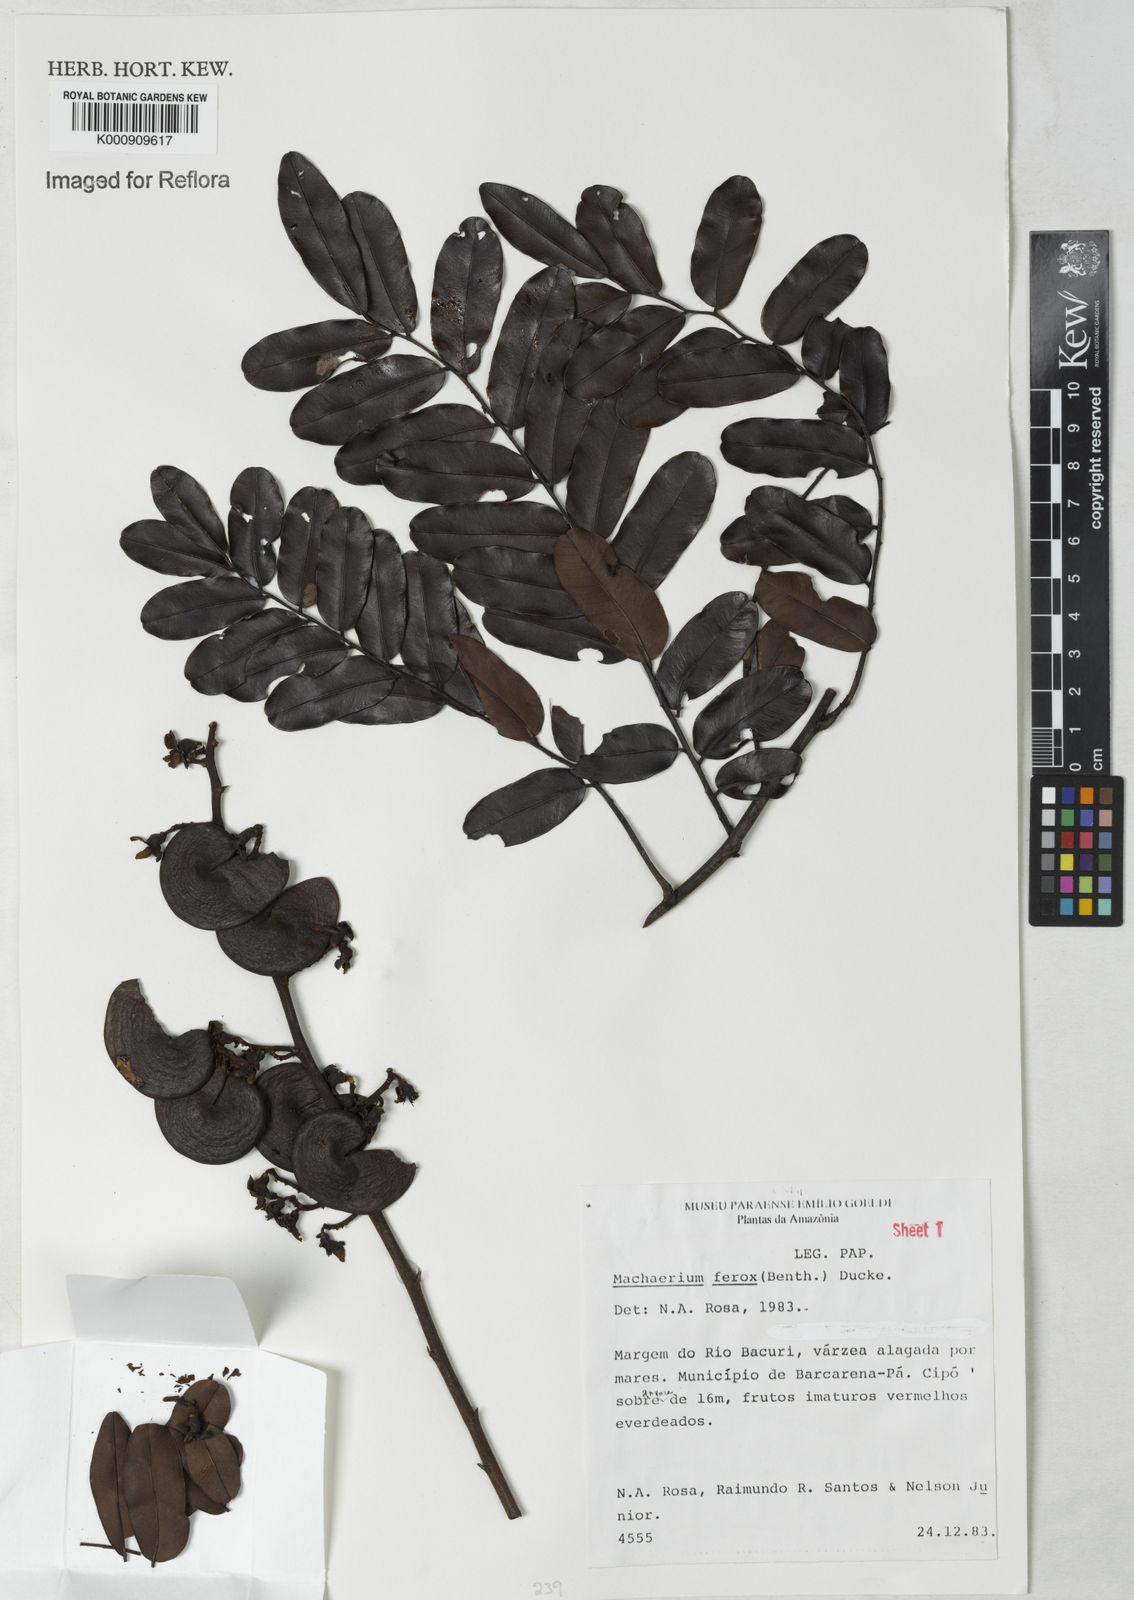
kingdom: Plantae
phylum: Tracheophyta
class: Magnoliopsida
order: Fabales
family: Fabaceae
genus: Machaerium
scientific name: Machaerium ferox
